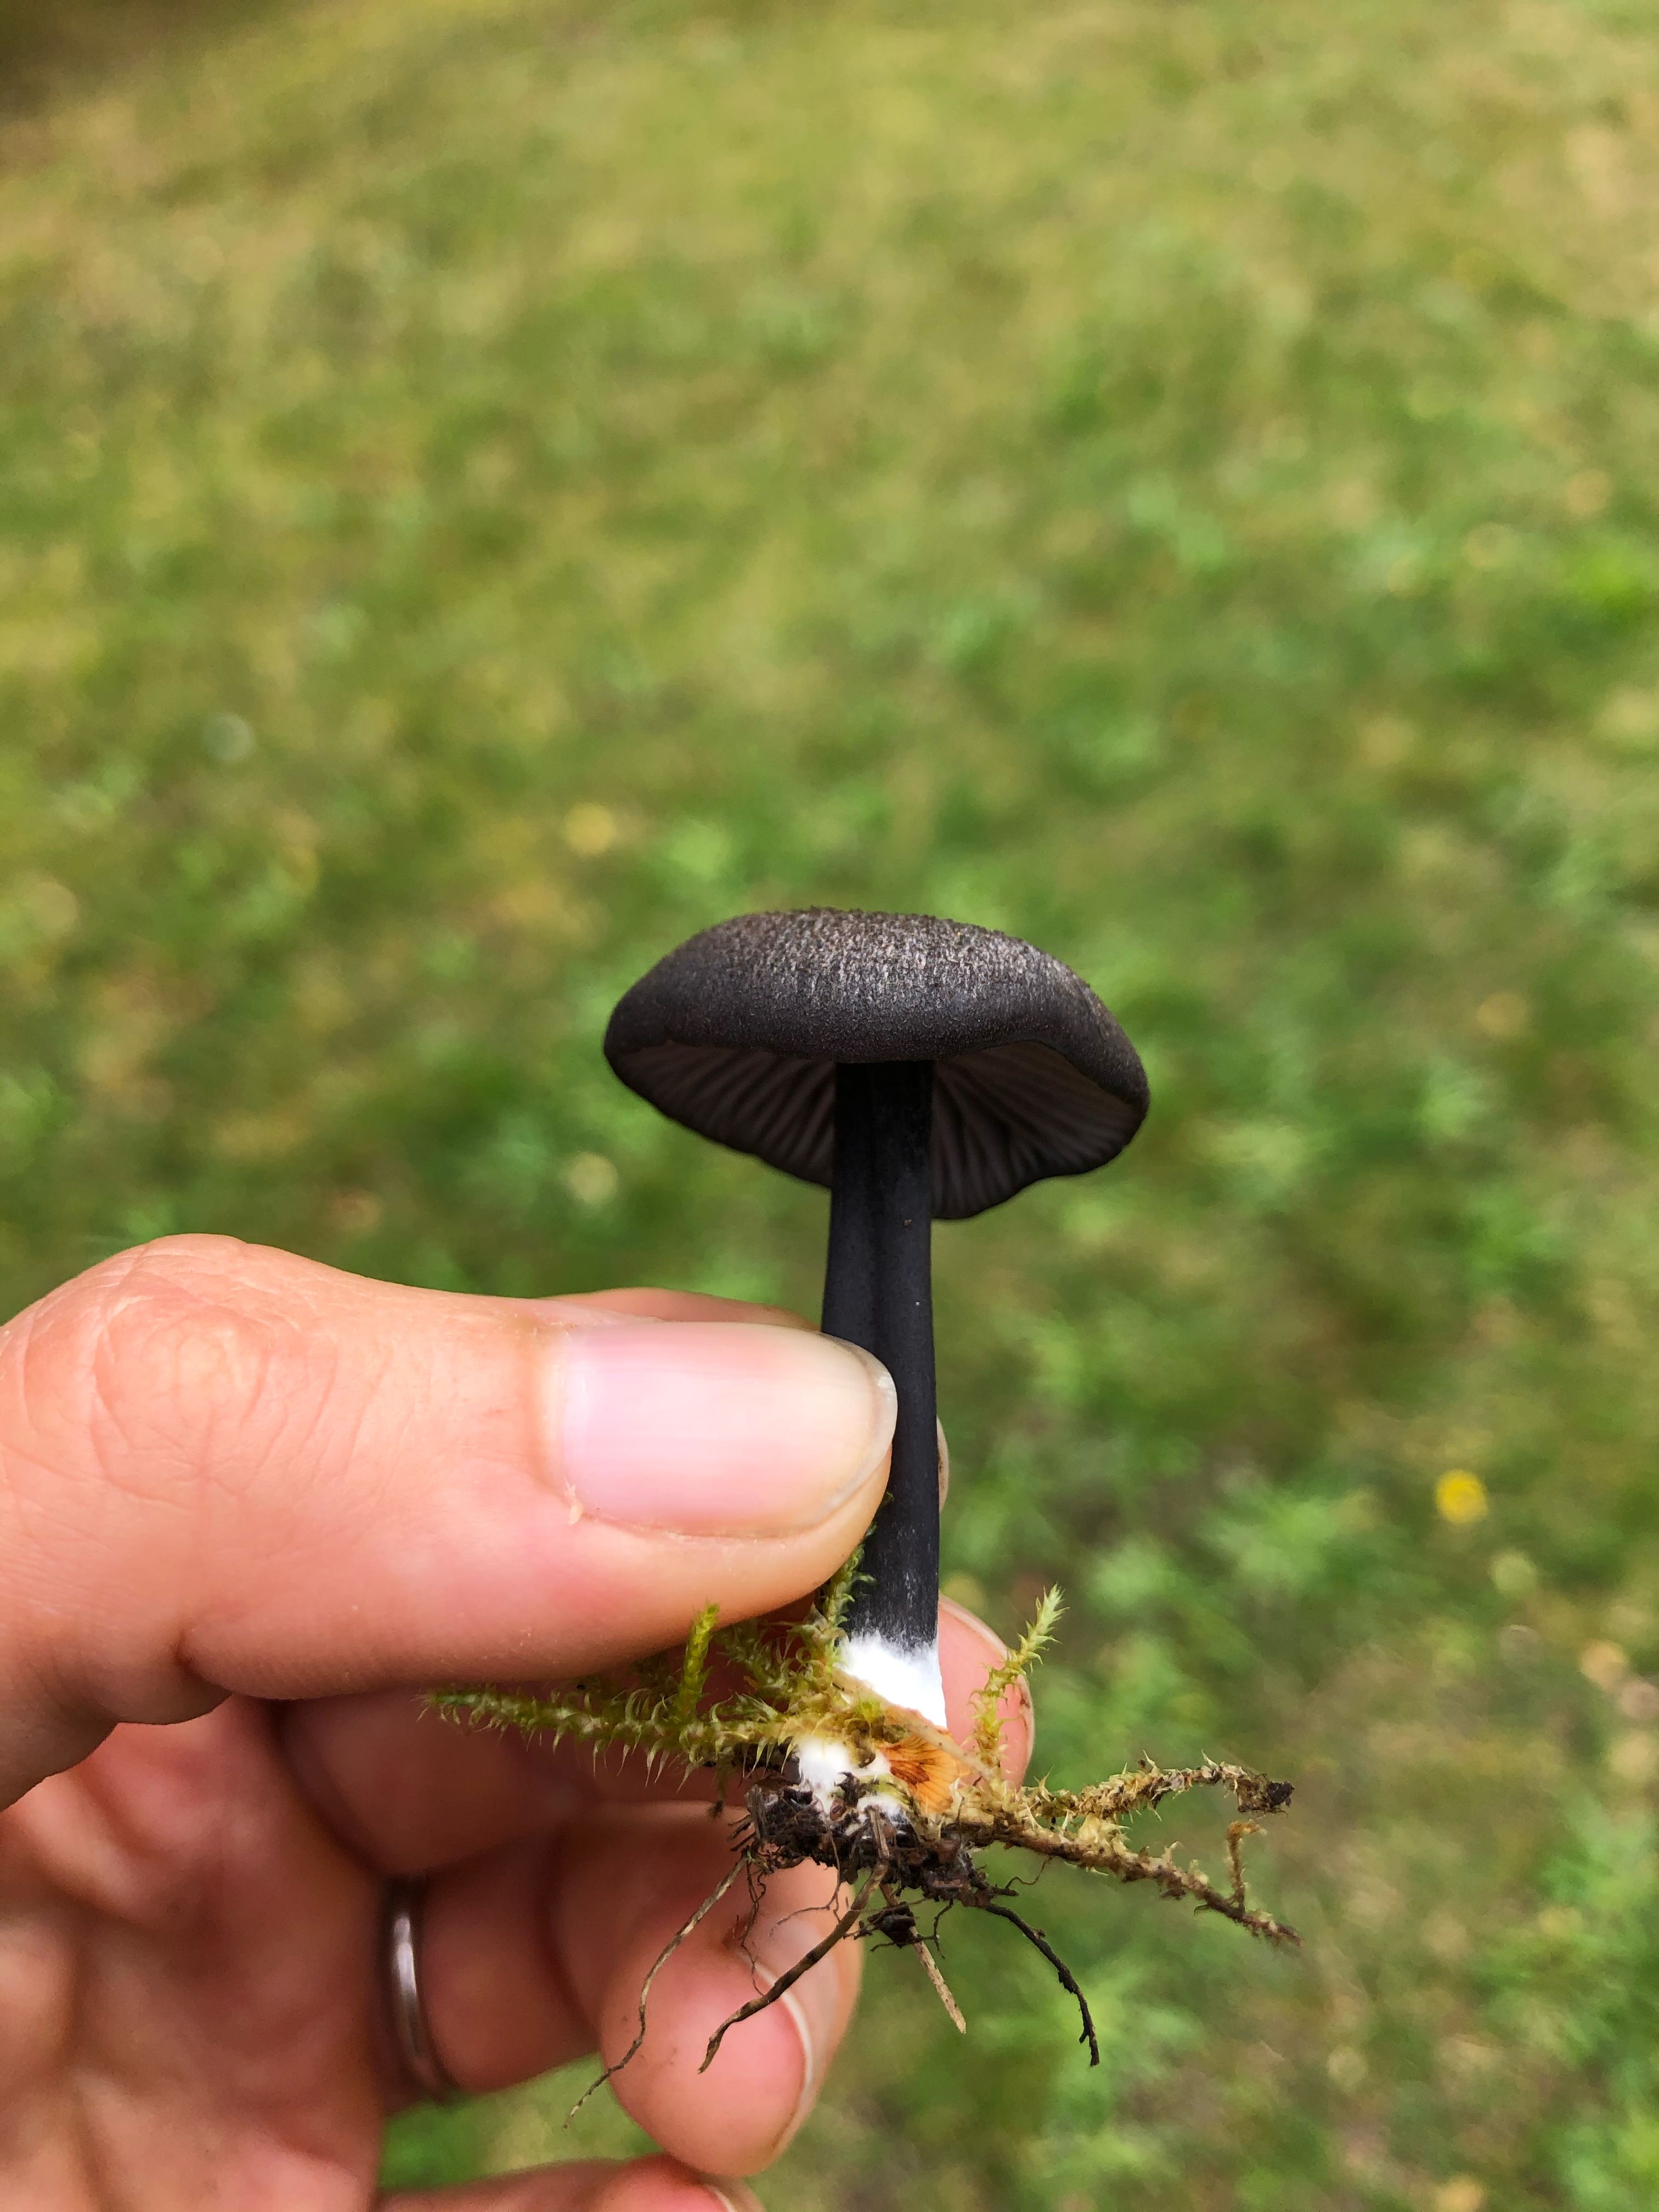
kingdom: Fungi
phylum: Basidiomycota
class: Agaricomycetes
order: Agaricales
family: Entolomataceae
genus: Entoloma
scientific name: Entoloma
